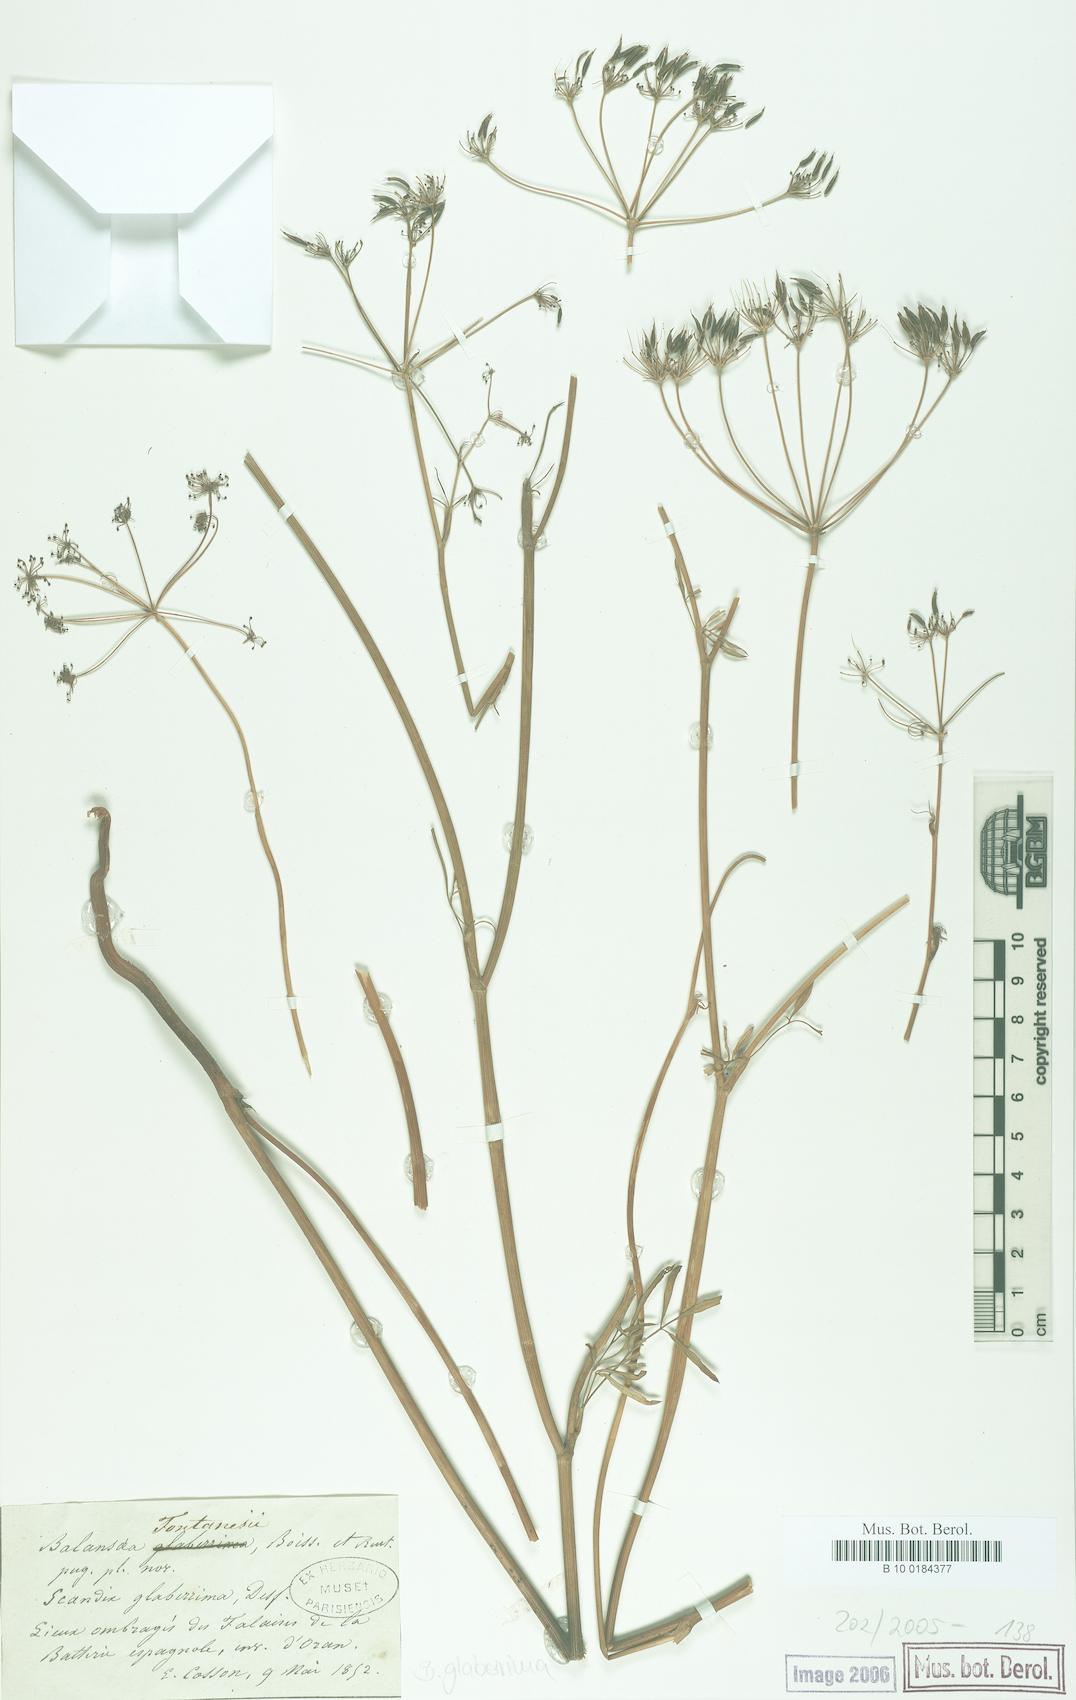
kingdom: Plantae
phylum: Tracheophyta
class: Magnoliopsida
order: Apiales
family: Apiaceae
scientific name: Apiaceae
